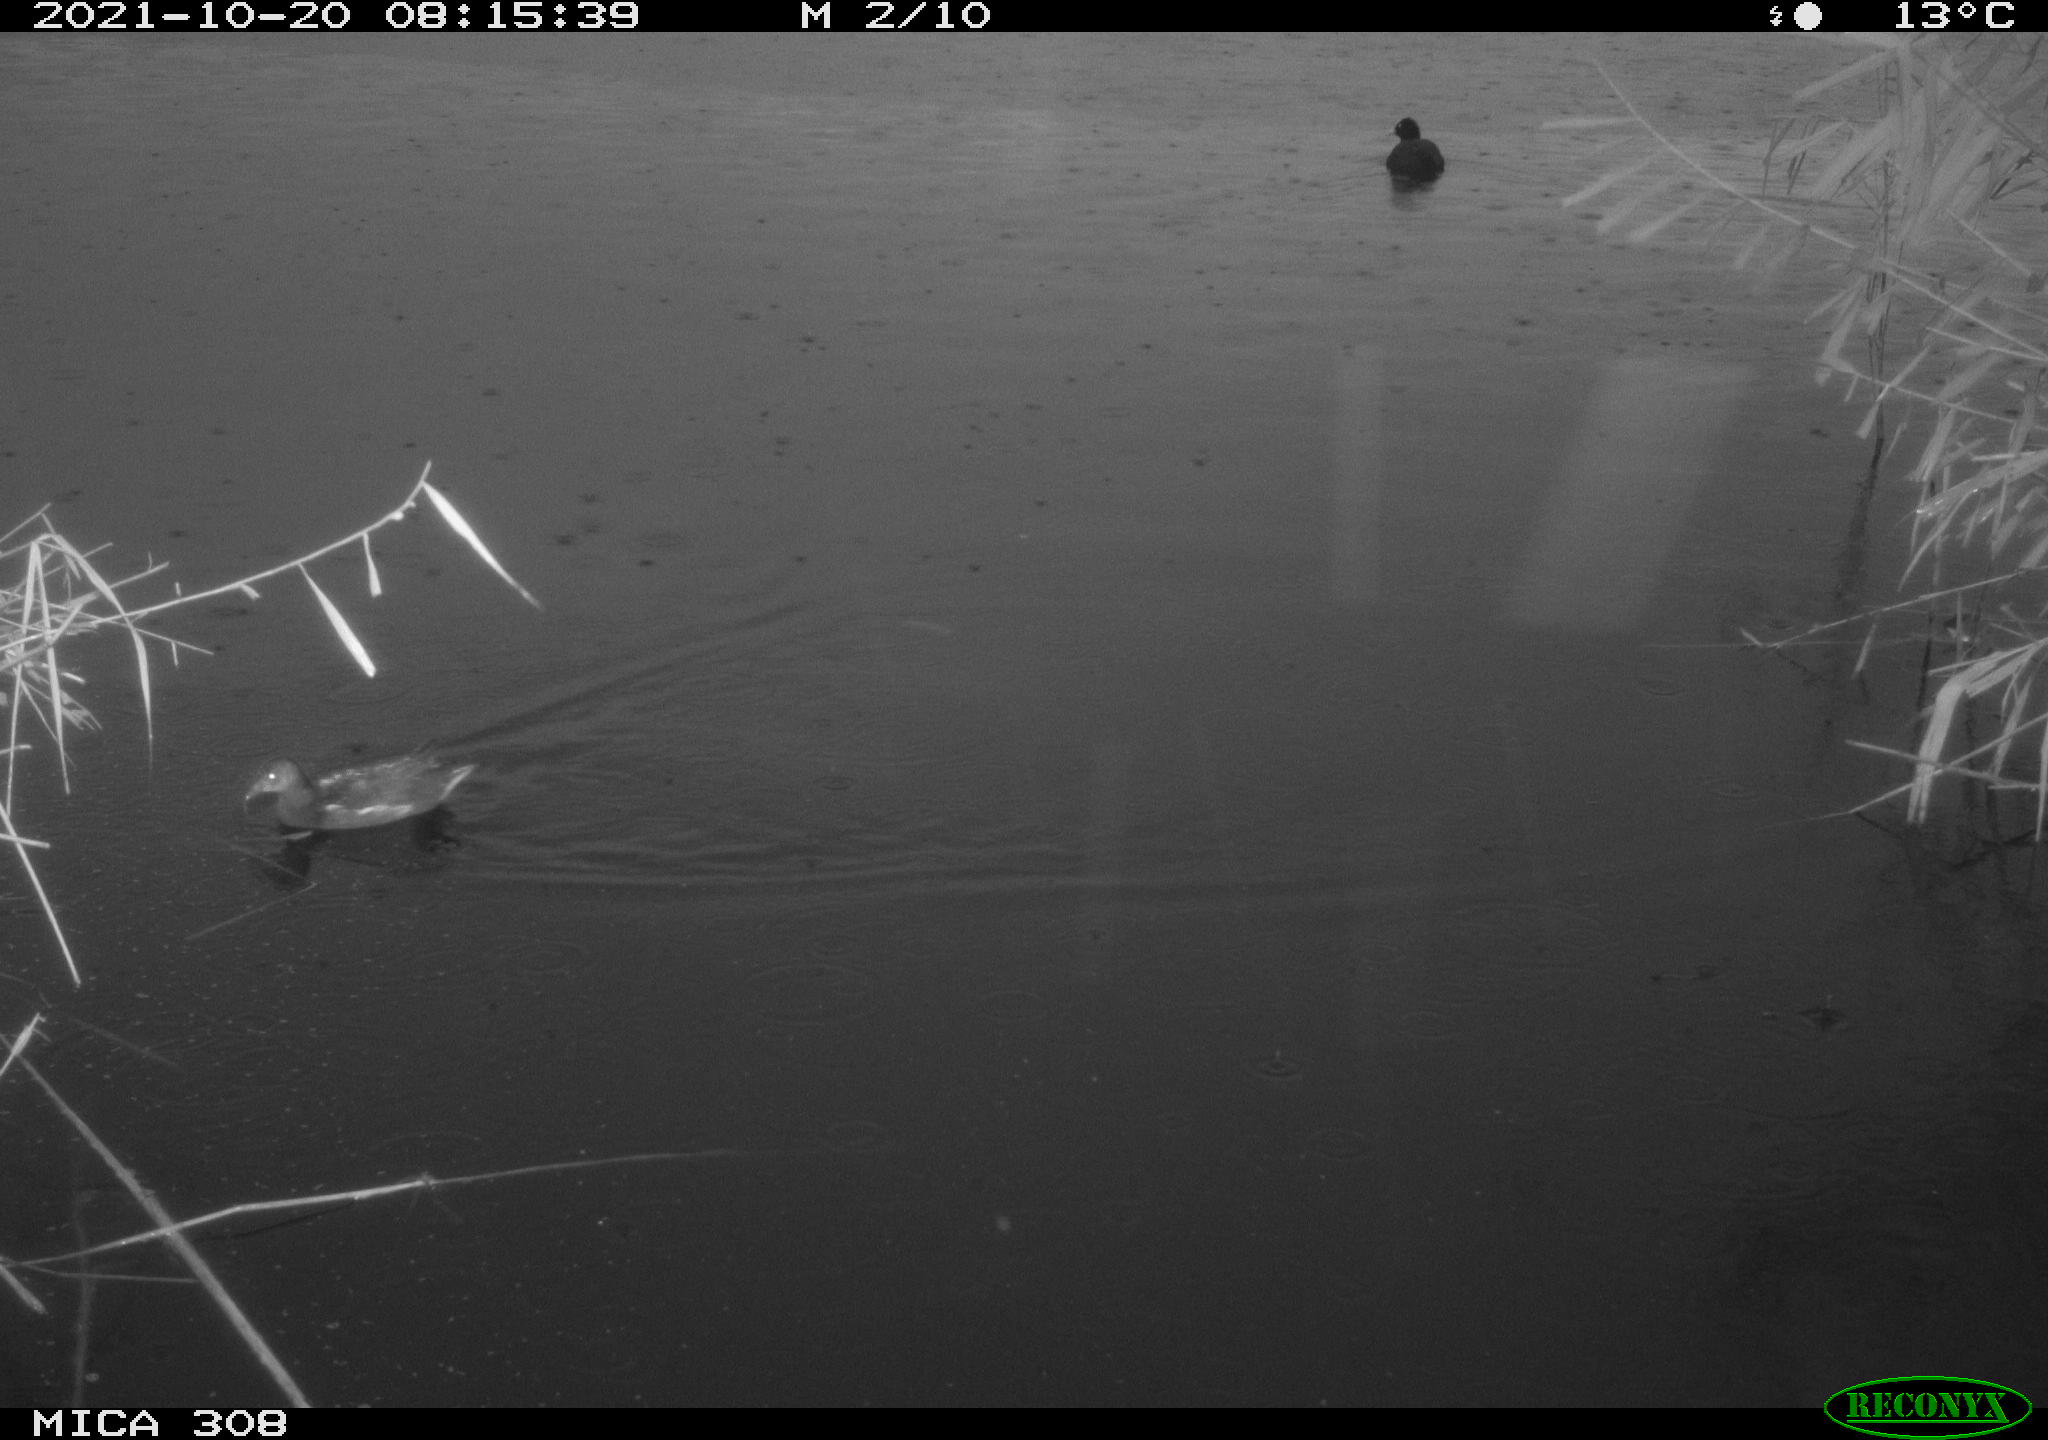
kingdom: Animalia
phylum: Chordata
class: Aves
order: Gruiformes
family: Rallidae
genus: Gallinula
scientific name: Gallinula chloropus
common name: Common moorhen
